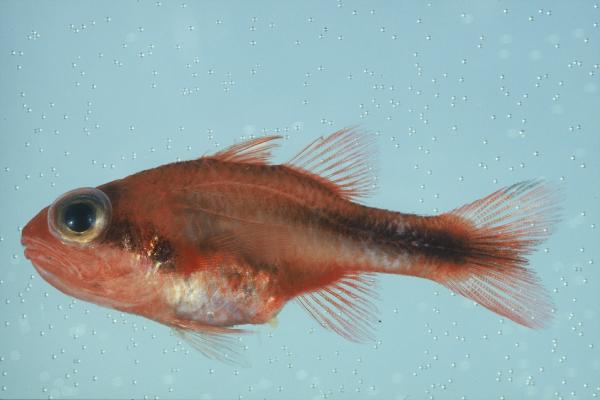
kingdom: Animalia
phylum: Chordata
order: Perciformes
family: Apogonidae
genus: Apogon
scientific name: Apogon semiornatus
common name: Threeband cardinalfish
